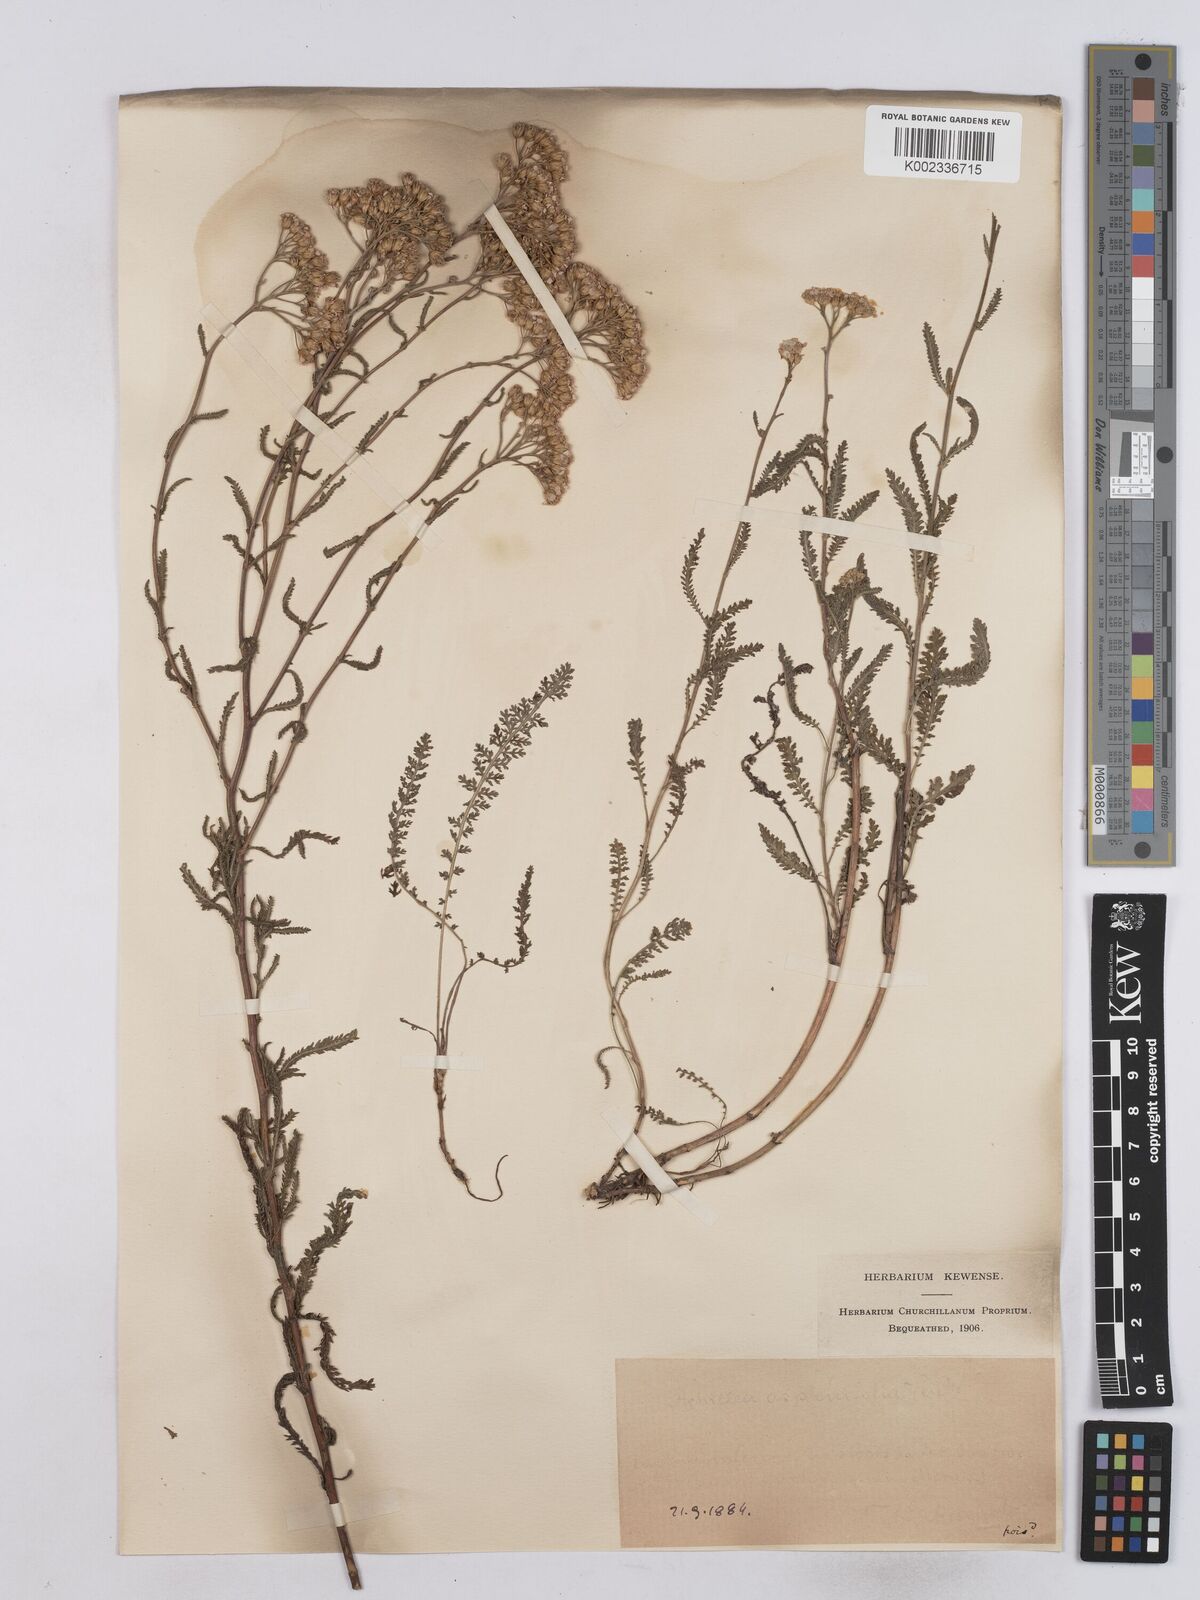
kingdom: Plantae
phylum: Tracheophyta
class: Magnoliopsida
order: Asterales
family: Asteraceae
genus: Achillea
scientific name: Achillea aspleniifolia
